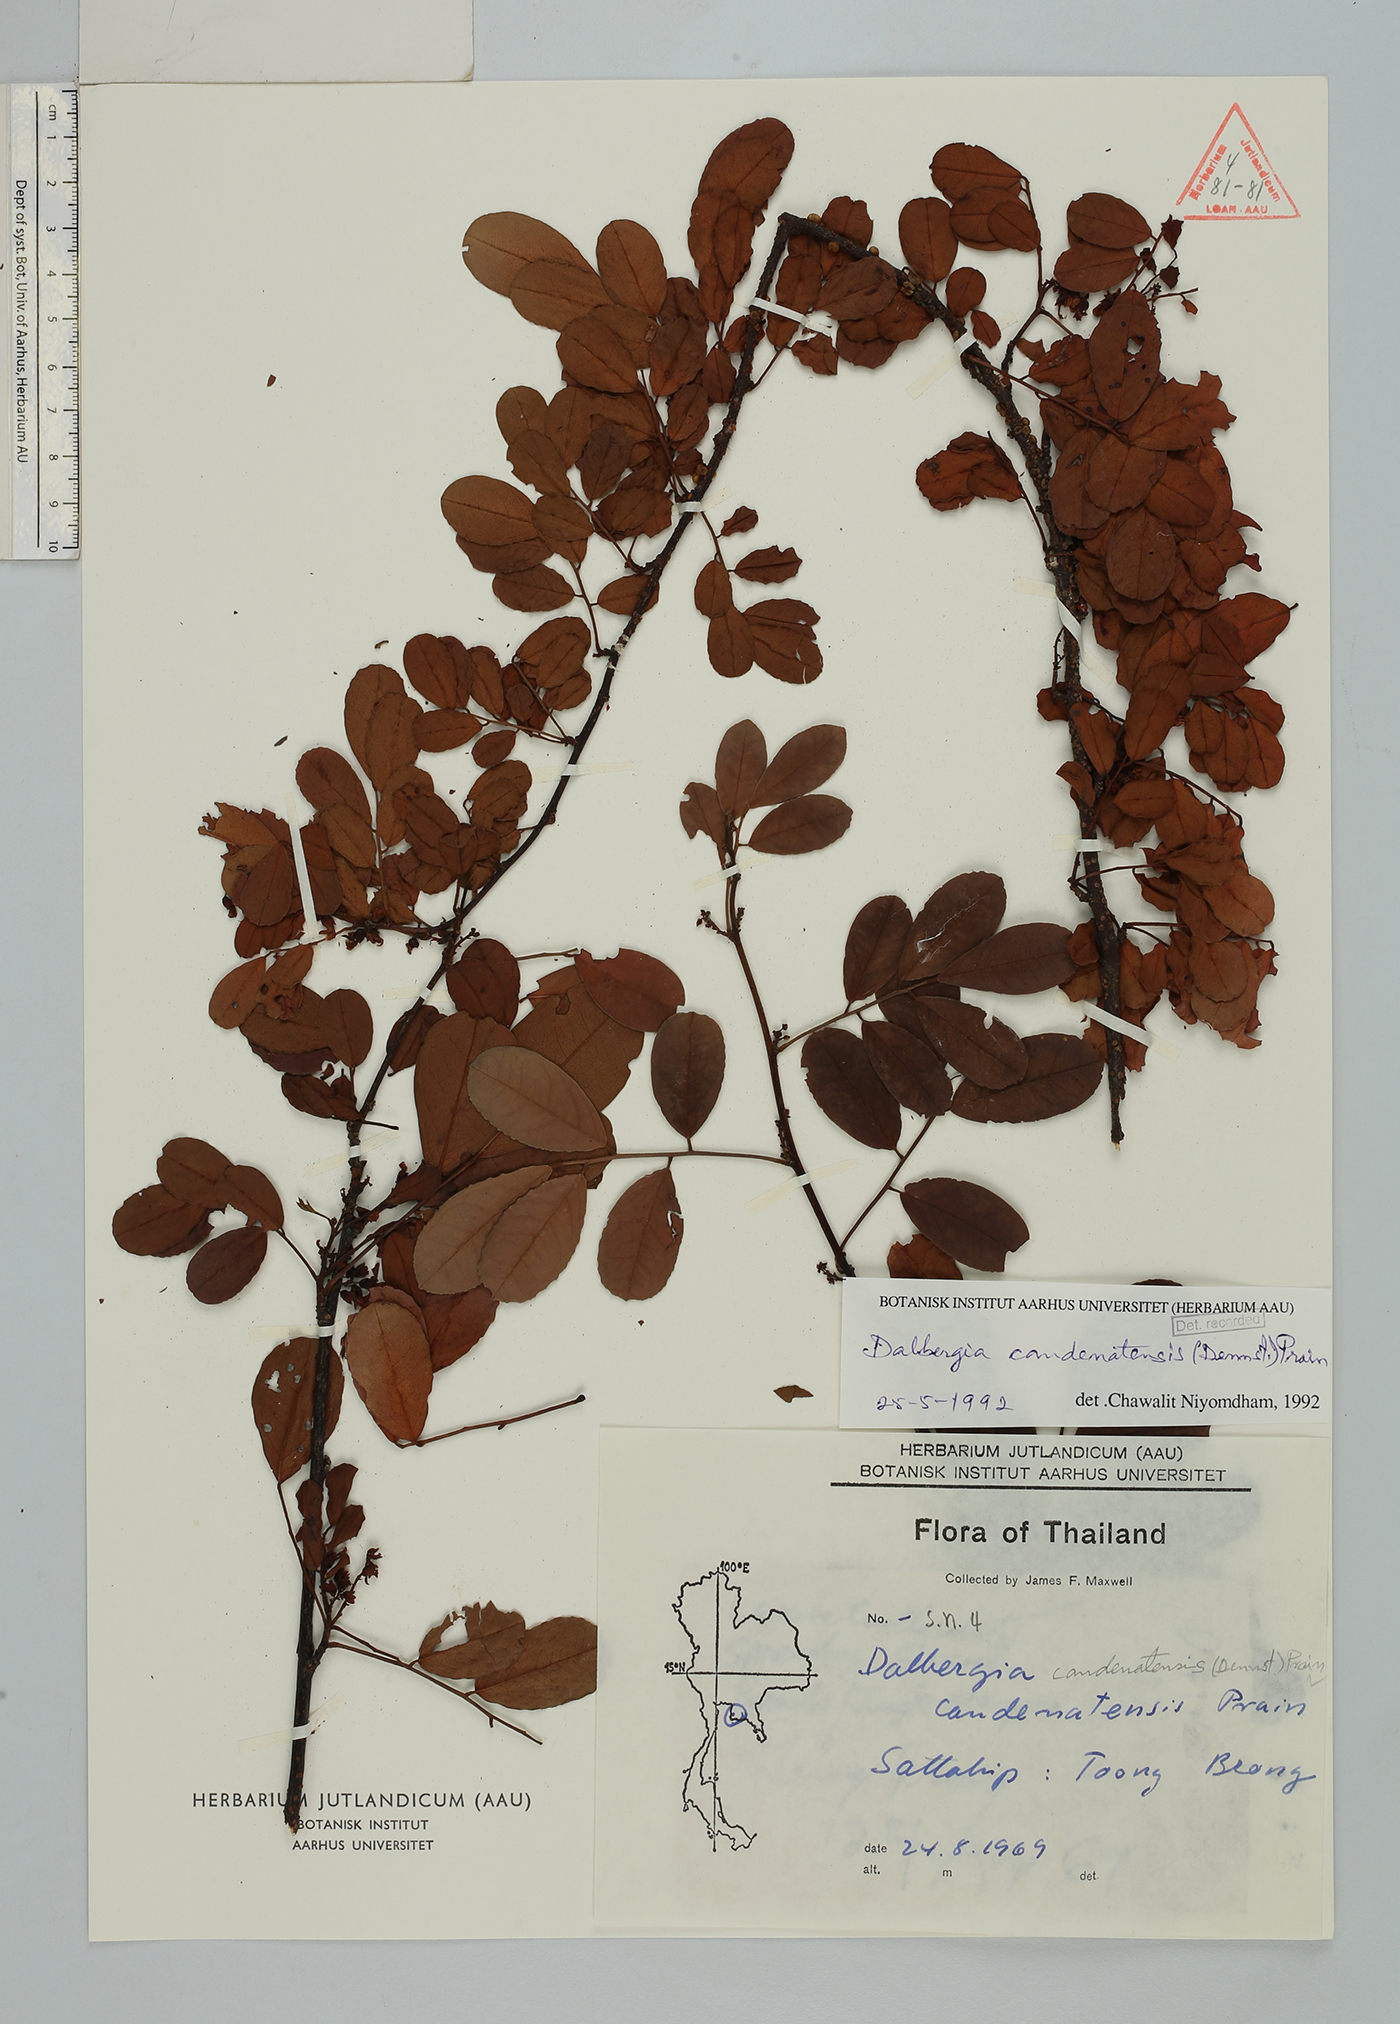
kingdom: Plantae
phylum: Tracheophyta
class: Magnoliopsida
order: Fabales
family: Fabaceae
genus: Dalbergia
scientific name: Dalbergia candenatensis
